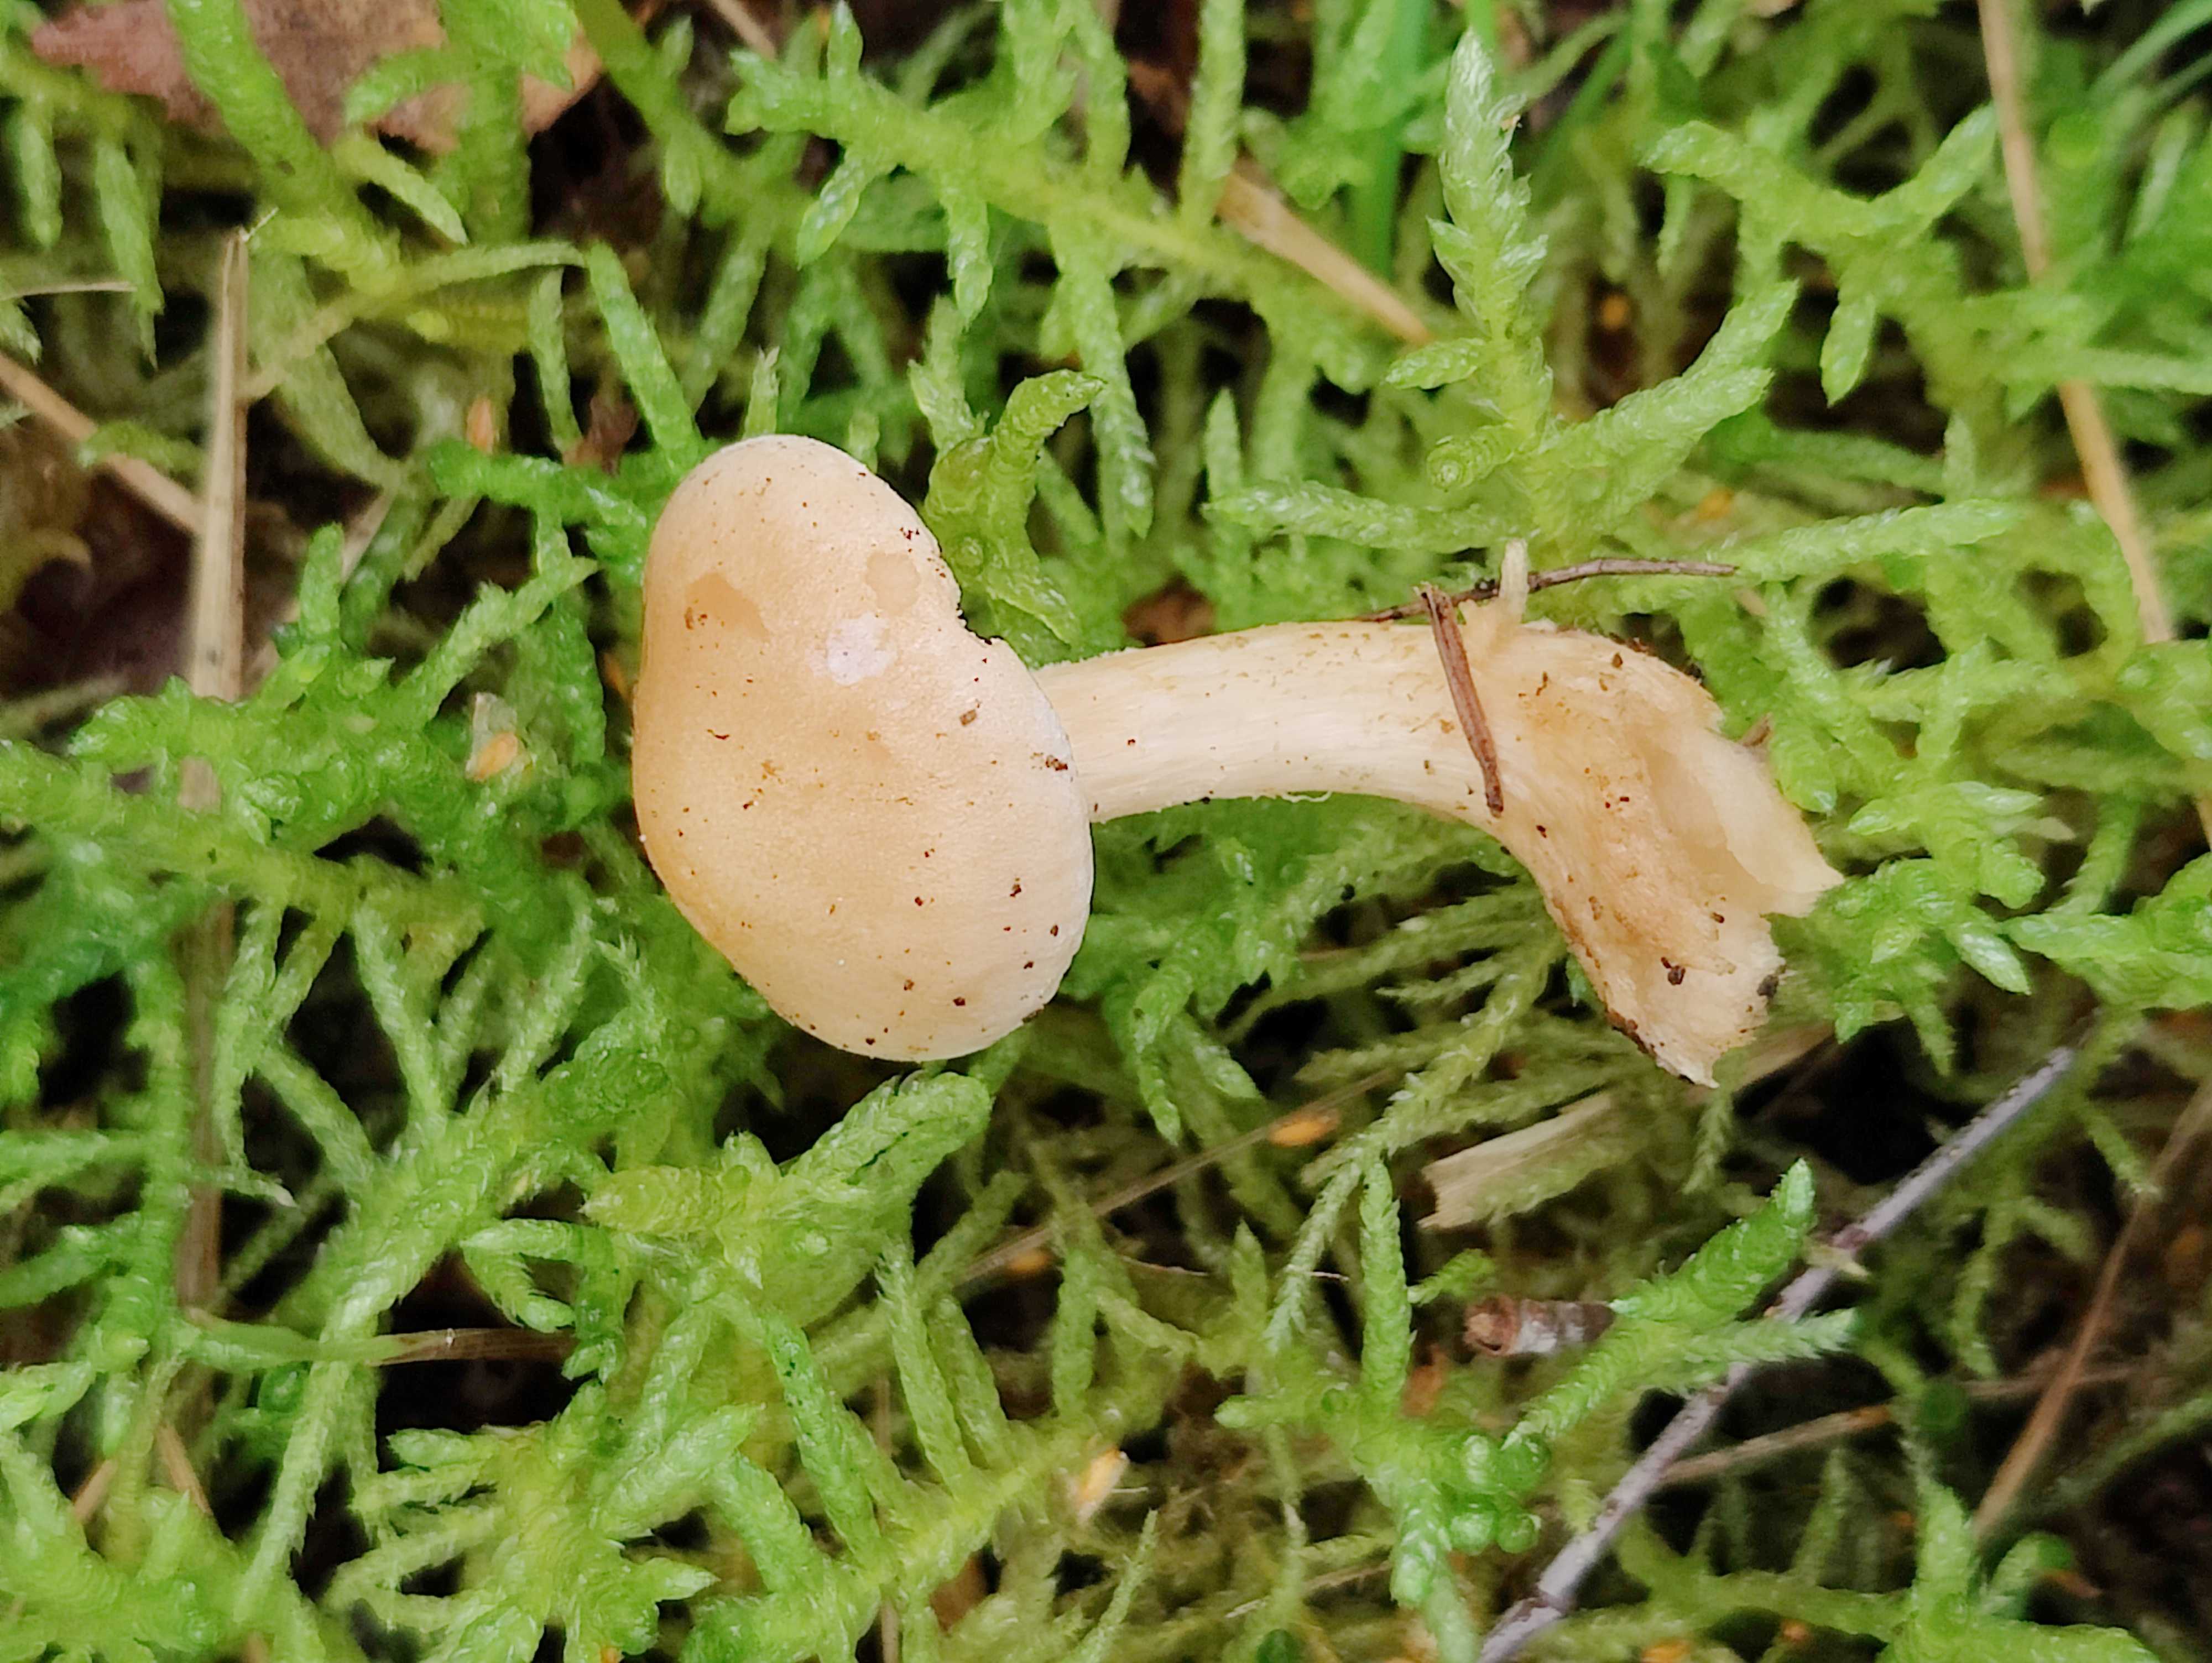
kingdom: Fungi
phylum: Basidiomycota
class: Agaricomycetes
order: Agaricales
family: Hymenogastraceae
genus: Hebeloma
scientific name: Hebeloma
